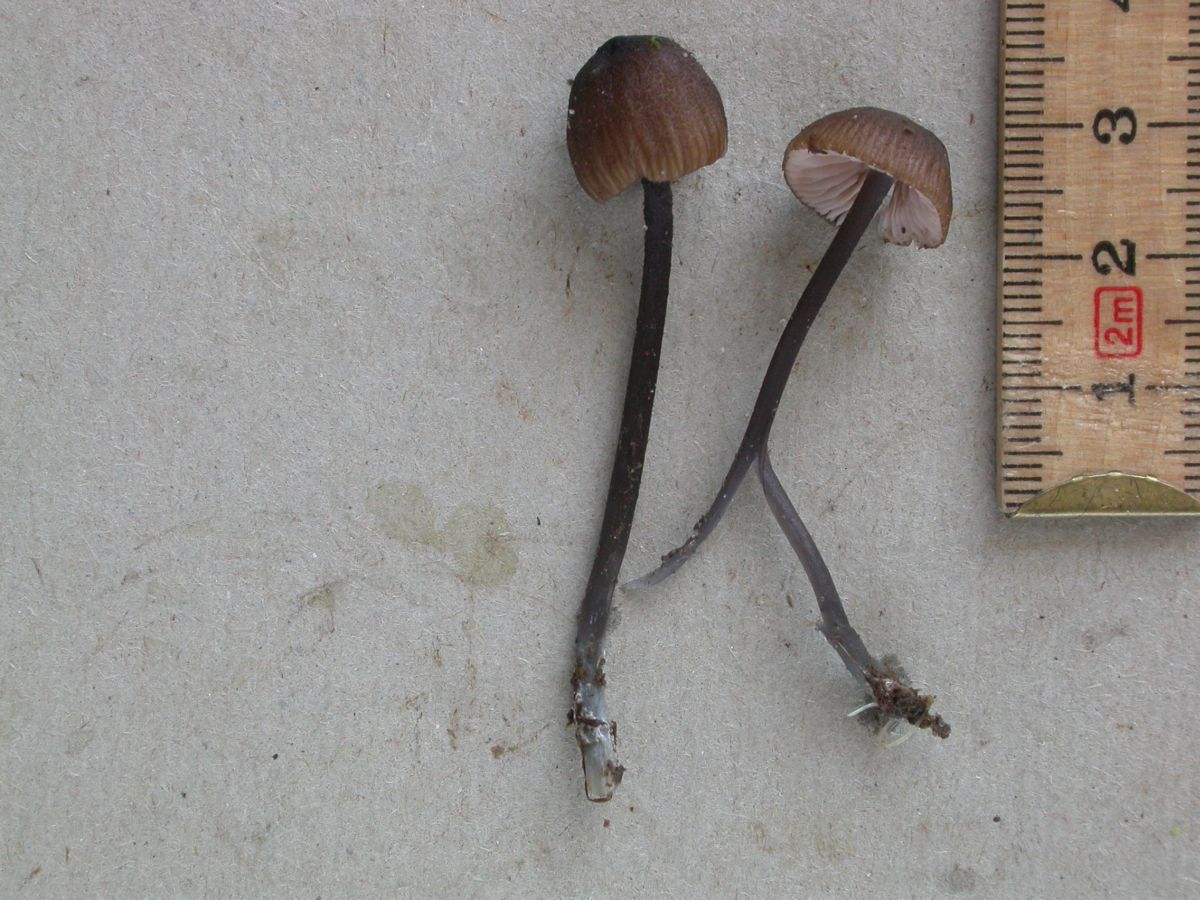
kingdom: Fungi
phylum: Basidiomycota
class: Agaricomycetes
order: Agaricales
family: Entolomataceae
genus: Entoloma
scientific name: Entoloma asprellum
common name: ru rødblad
